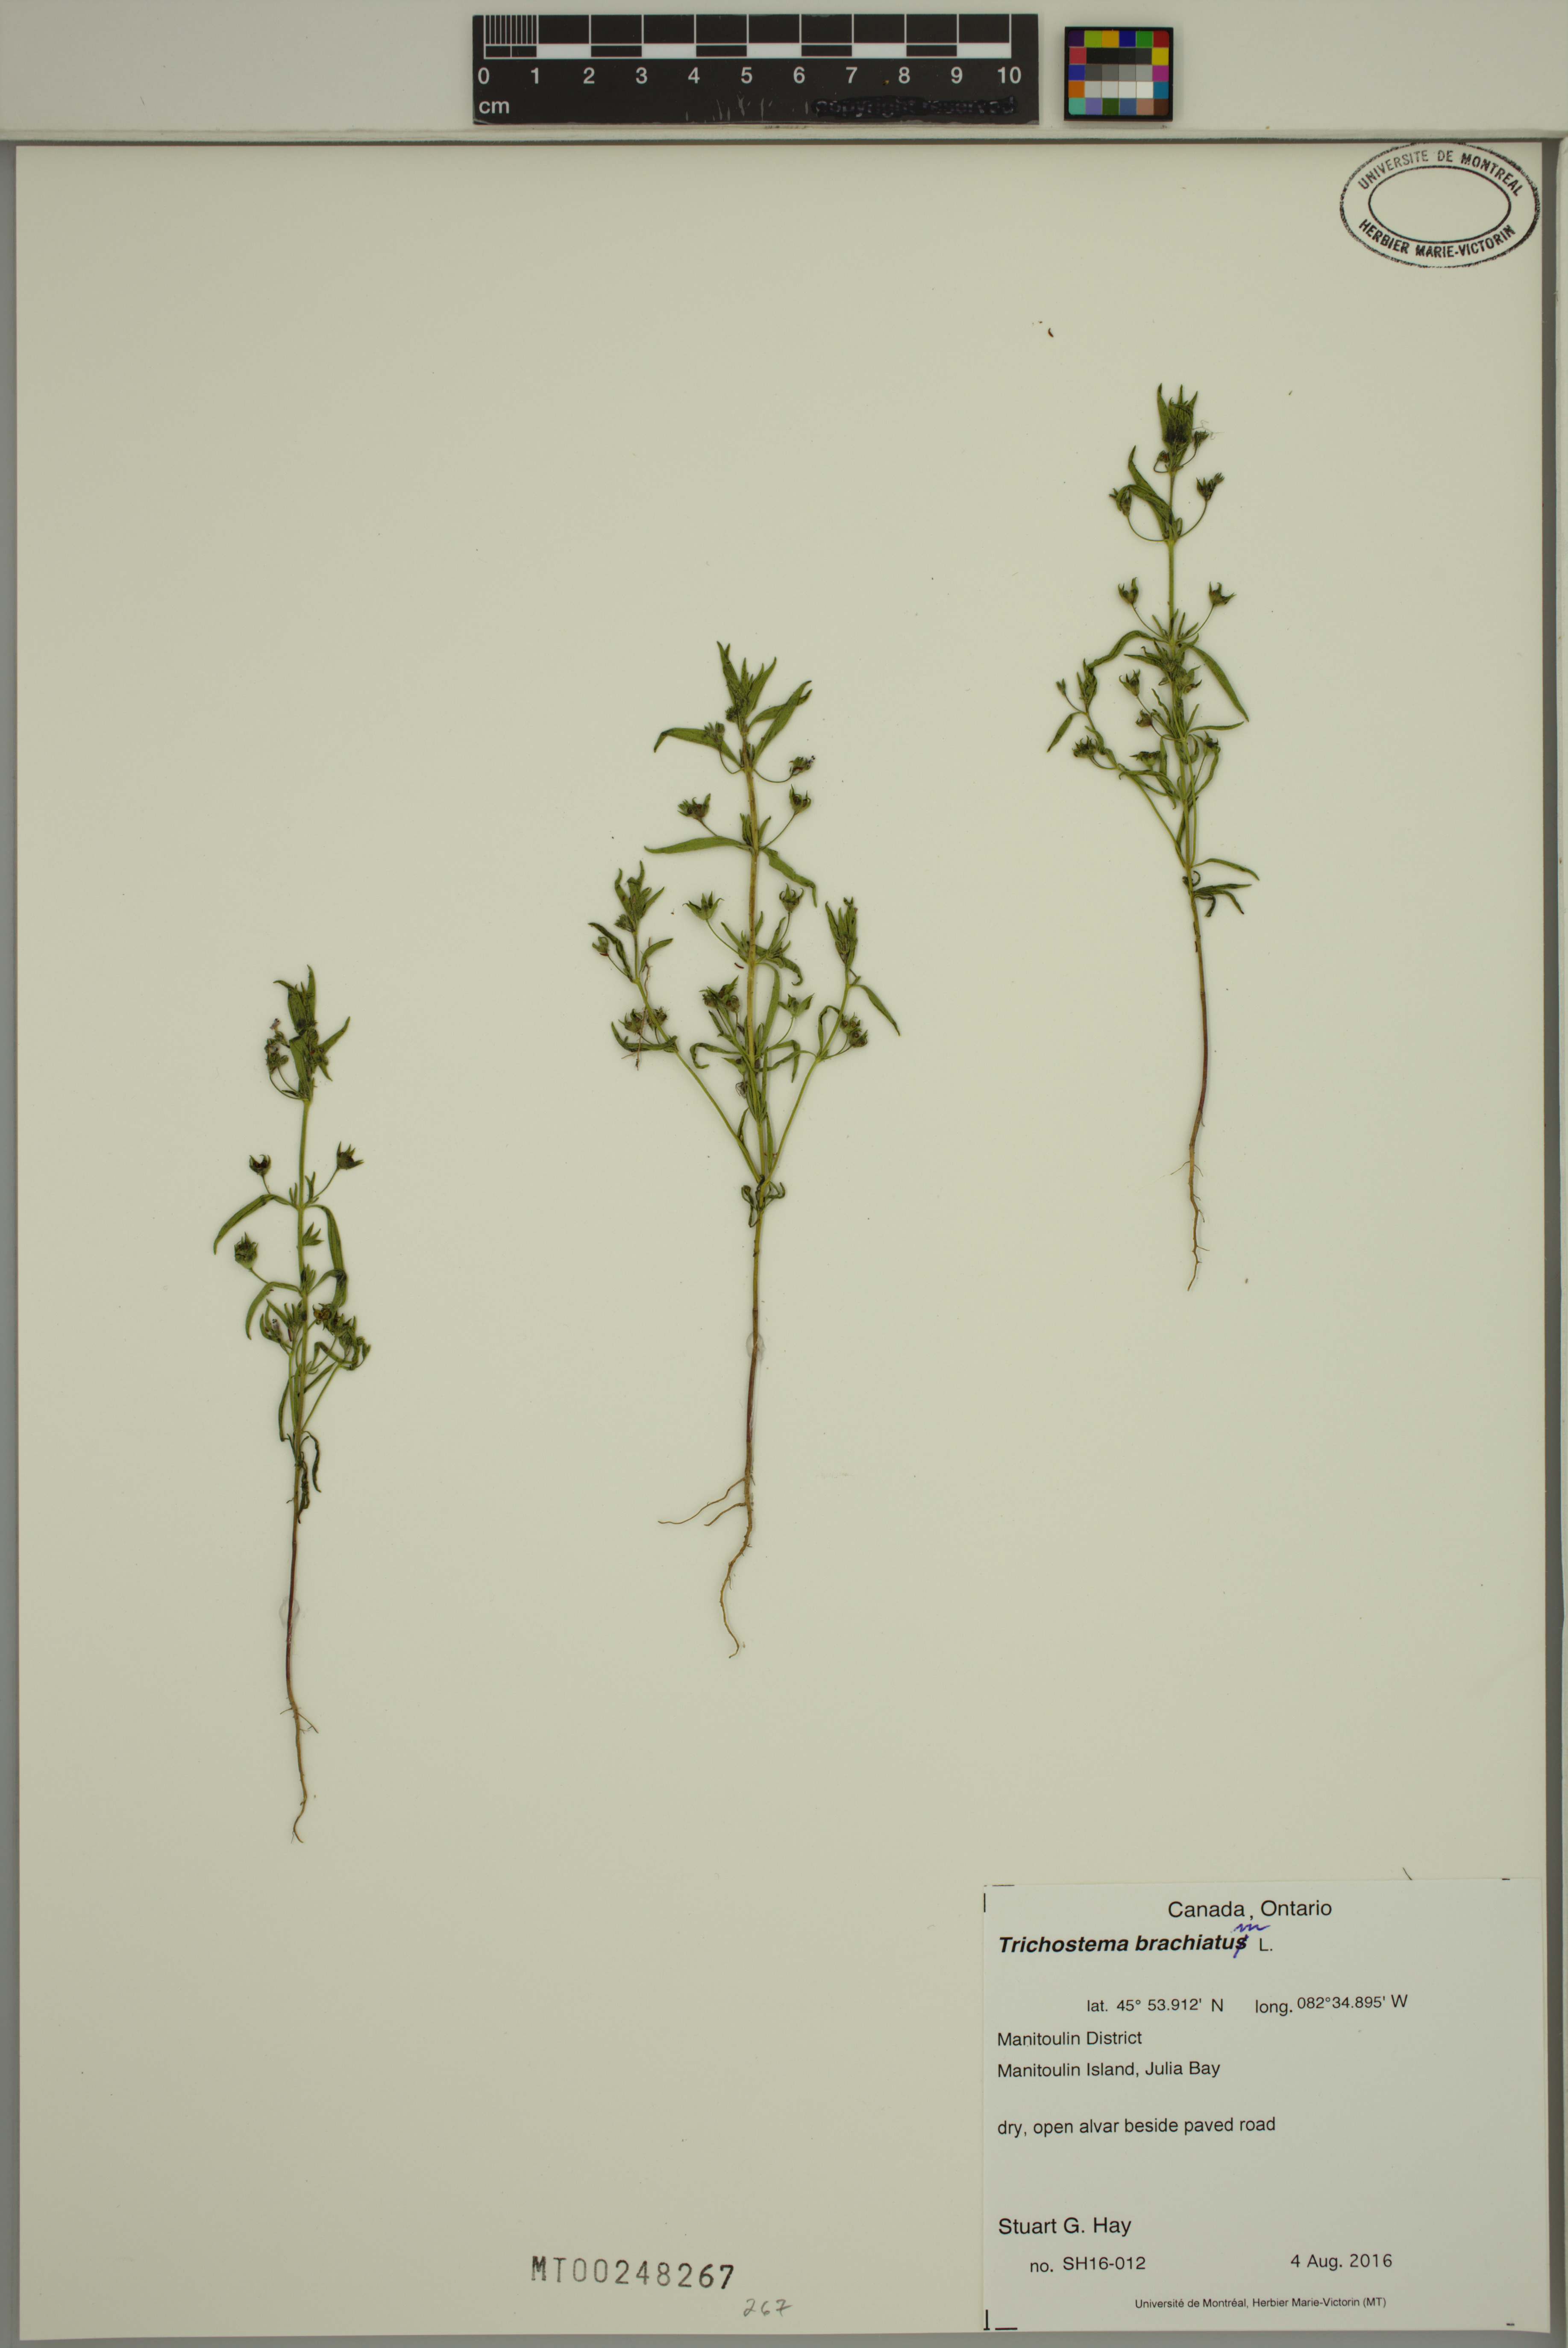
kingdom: Plantae
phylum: Tracheophyta
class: Magnoliopsida
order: Lamiales
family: Lamiaceae
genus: Trichostema
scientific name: Trichostema brachiatum
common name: False pennyroyal
